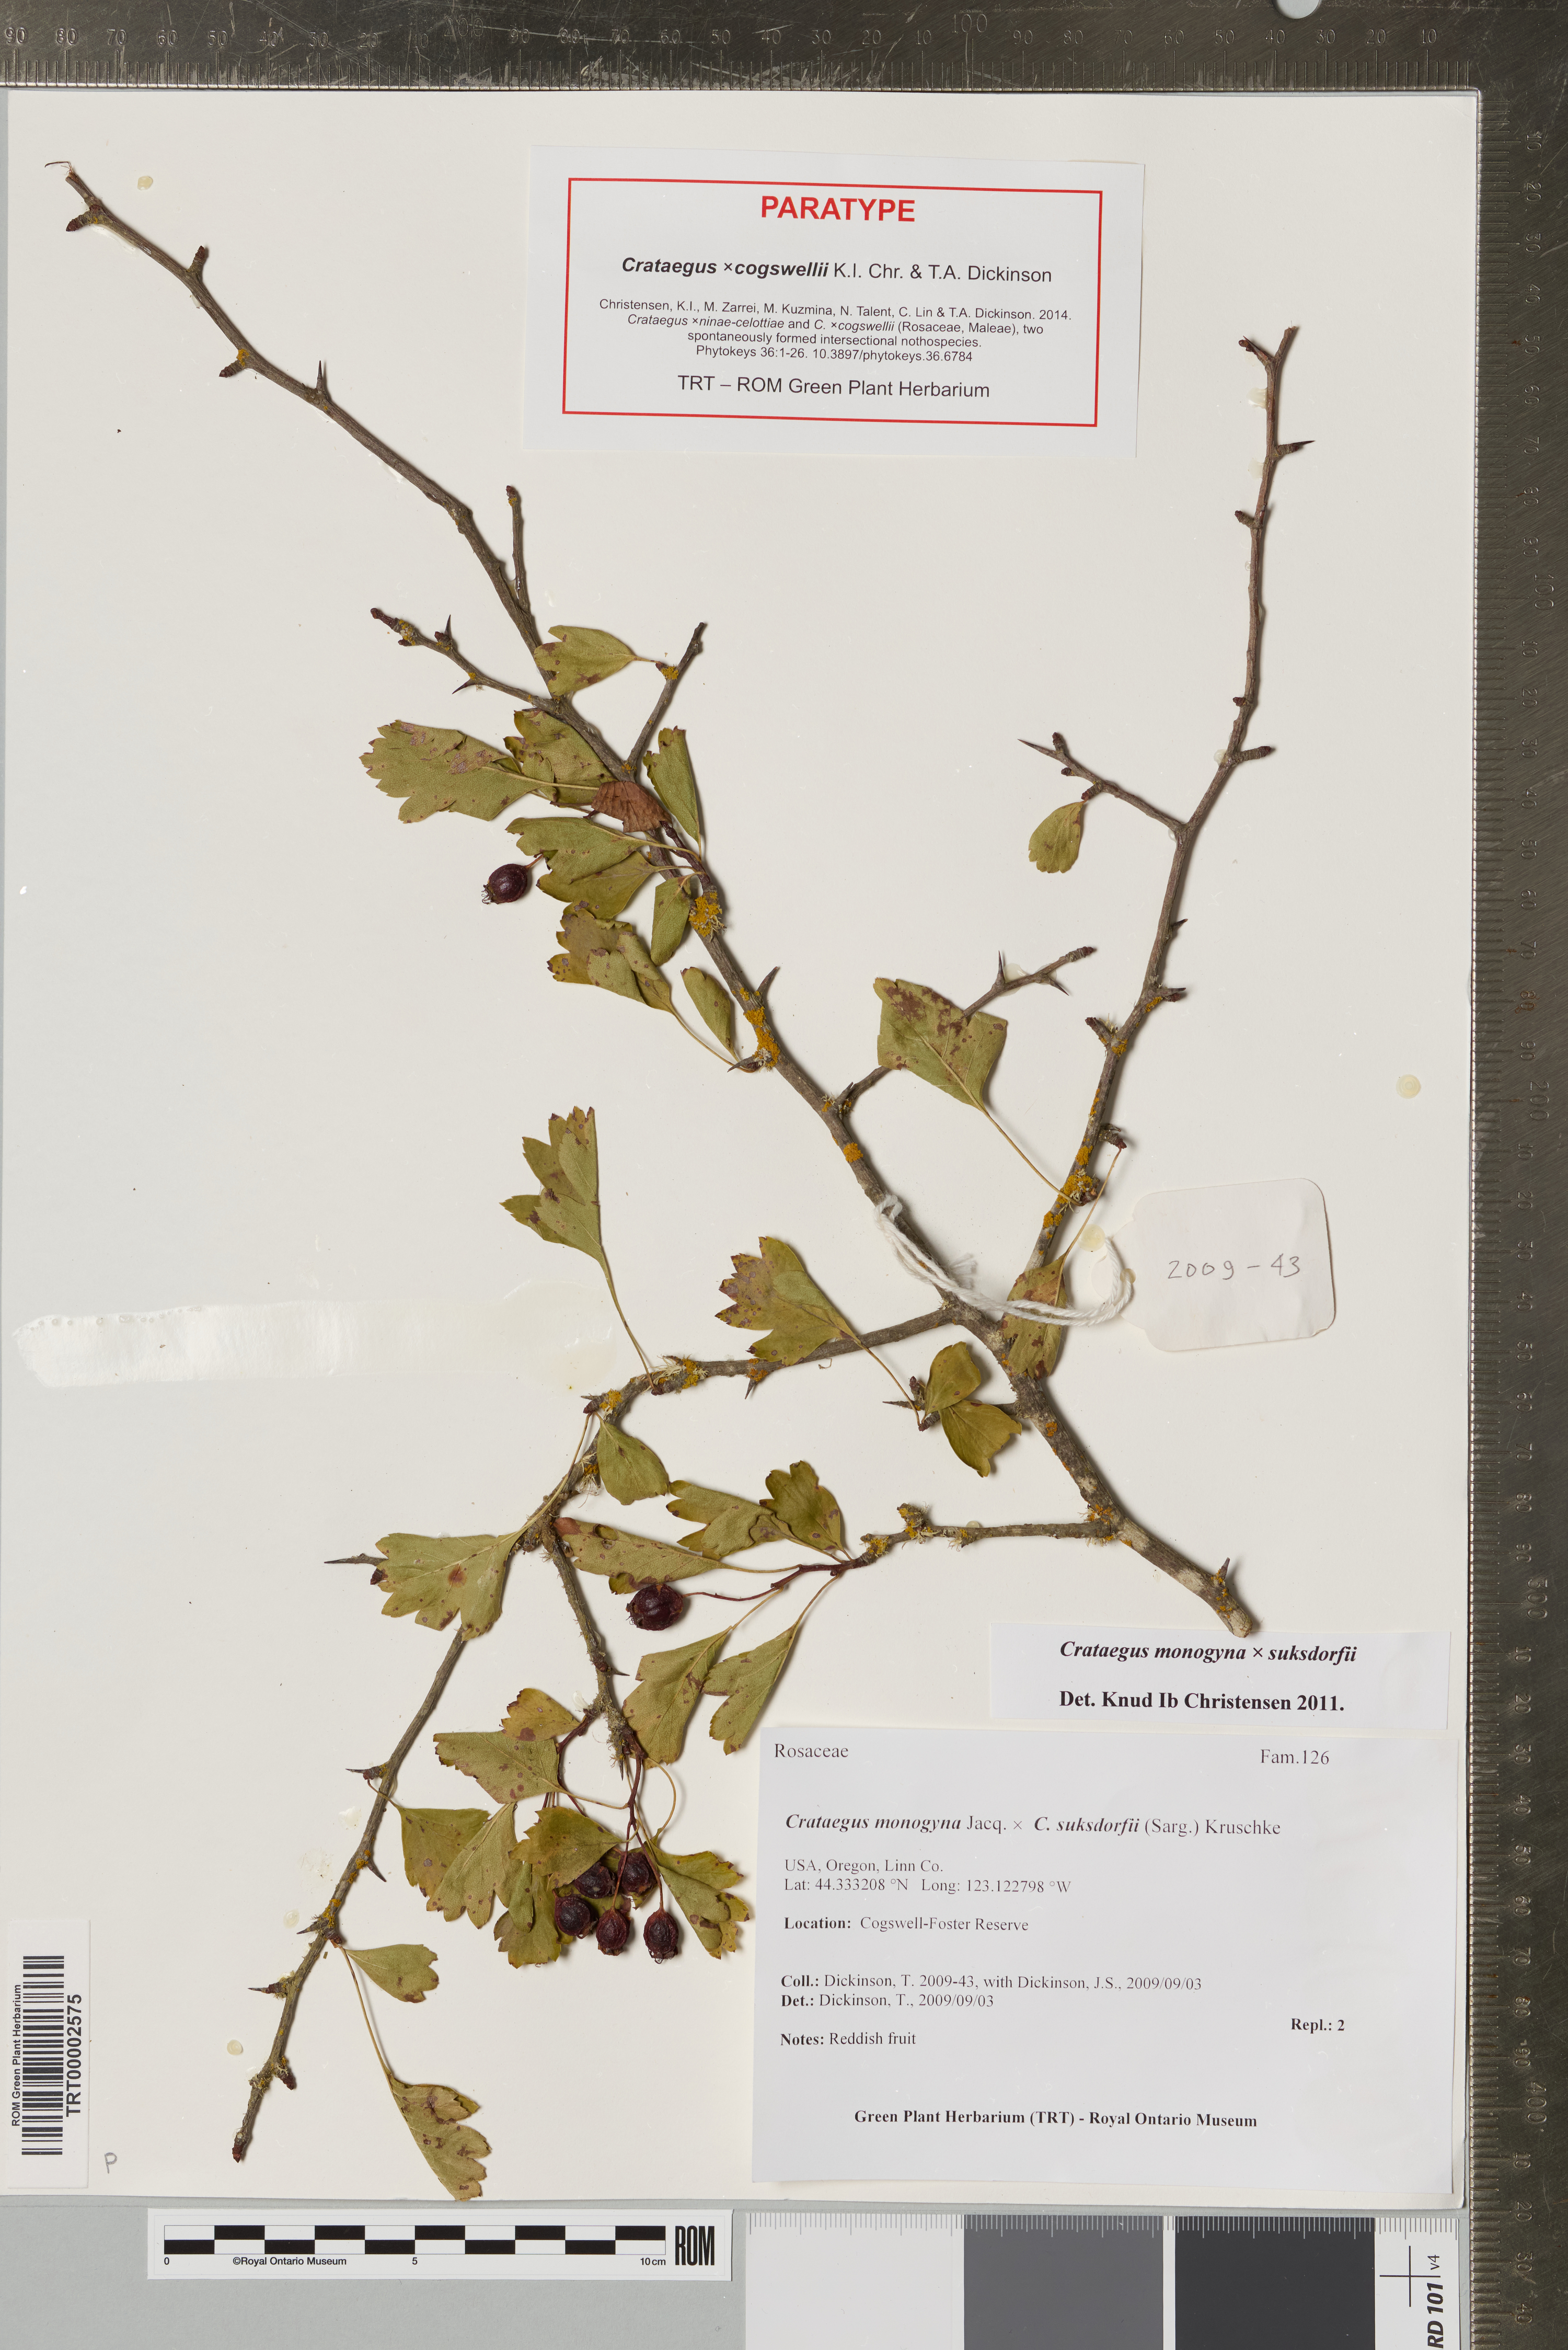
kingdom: Plantae
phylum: Tracheophyta
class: Magnoliopsida
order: Rosales
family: Rosaceae
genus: Crataegus
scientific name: Crataegus cogswellii
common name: Cogswell's hawthorn
